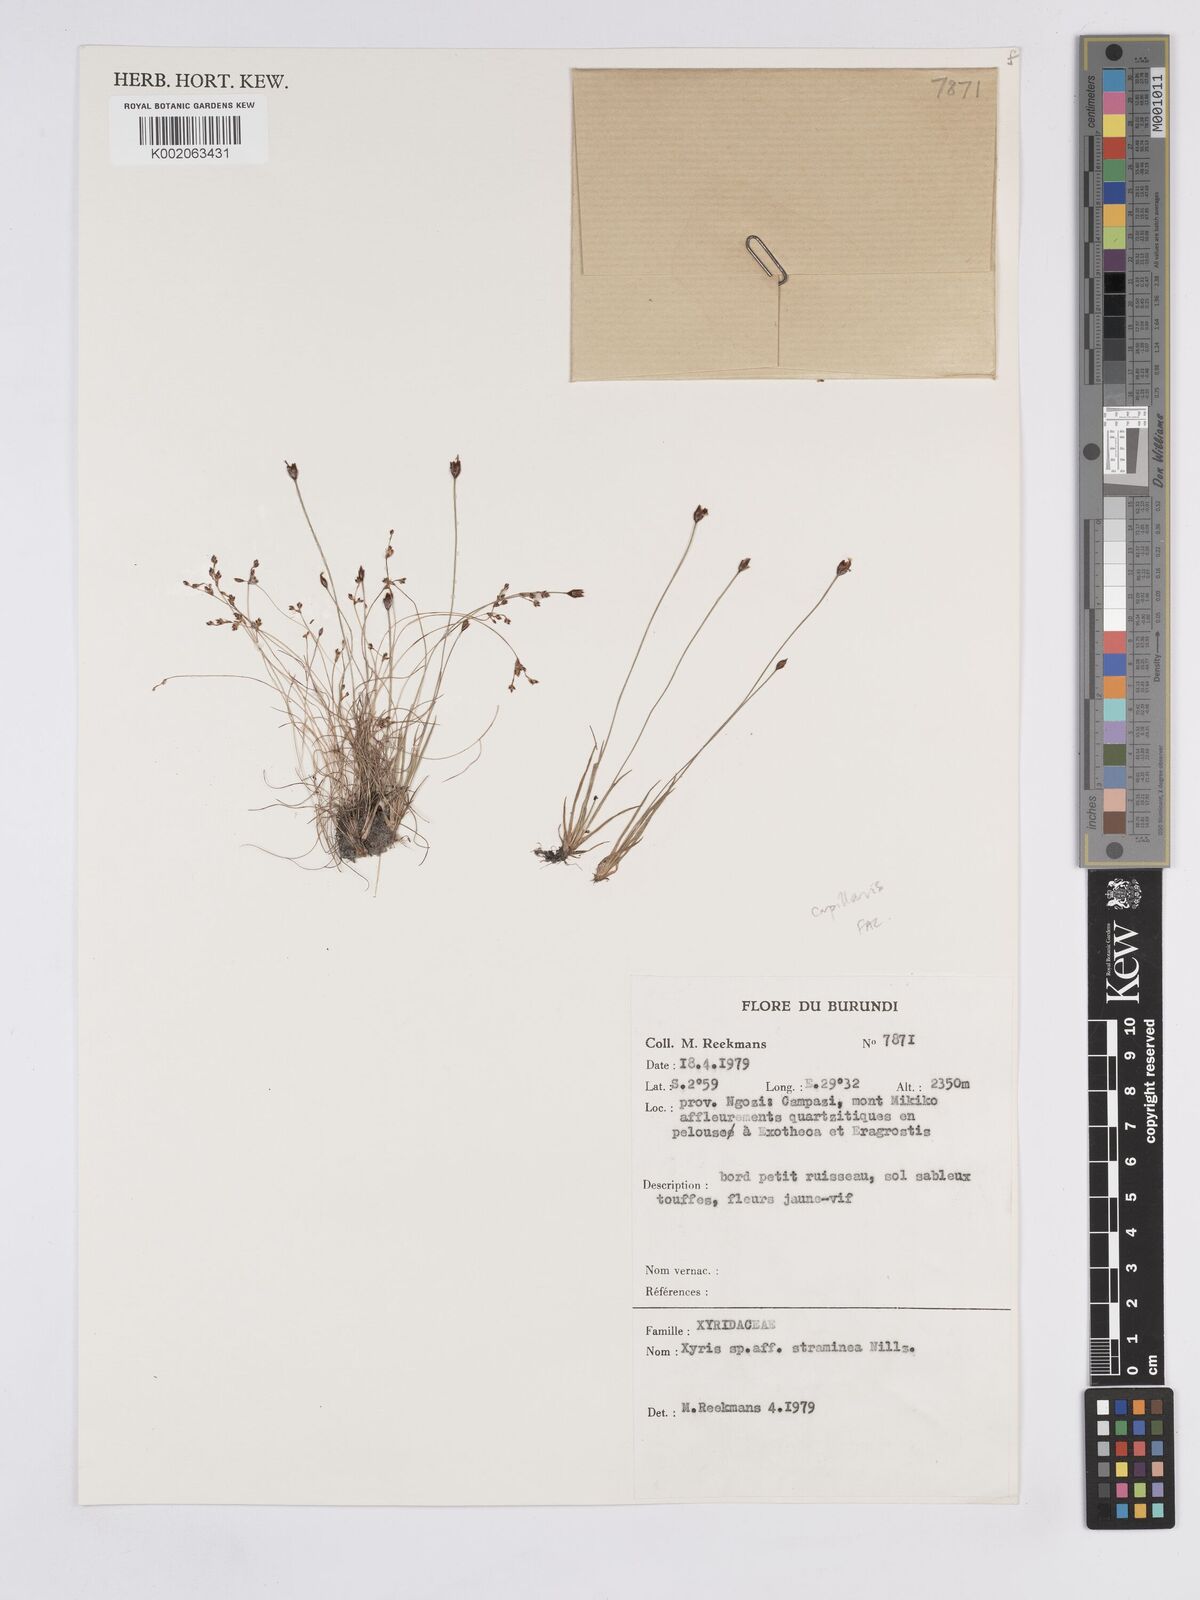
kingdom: Plantae
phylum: Tracheophyta
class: Liliopsida
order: Poales
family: Xyridaceae
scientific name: Xyridaceae
